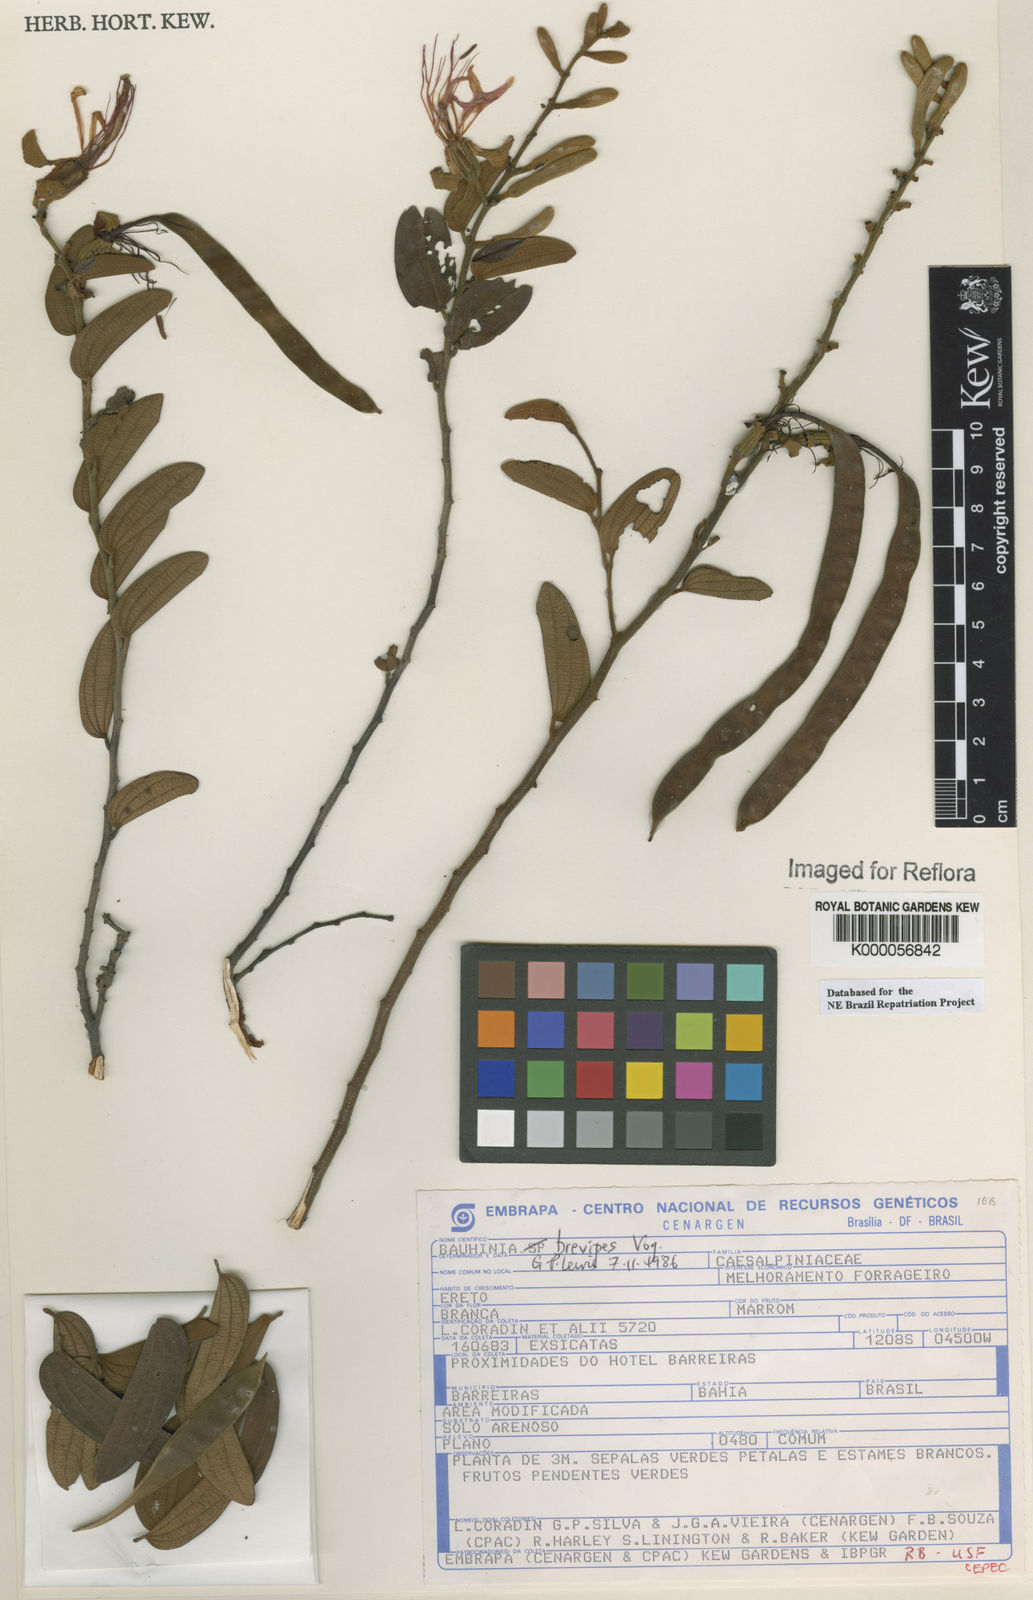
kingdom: Plantae
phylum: Tracheophyta
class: Magnoliopsida
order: Fabales
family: Fabaceae
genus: Bauhinia
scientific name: Bauhinia brevipes
